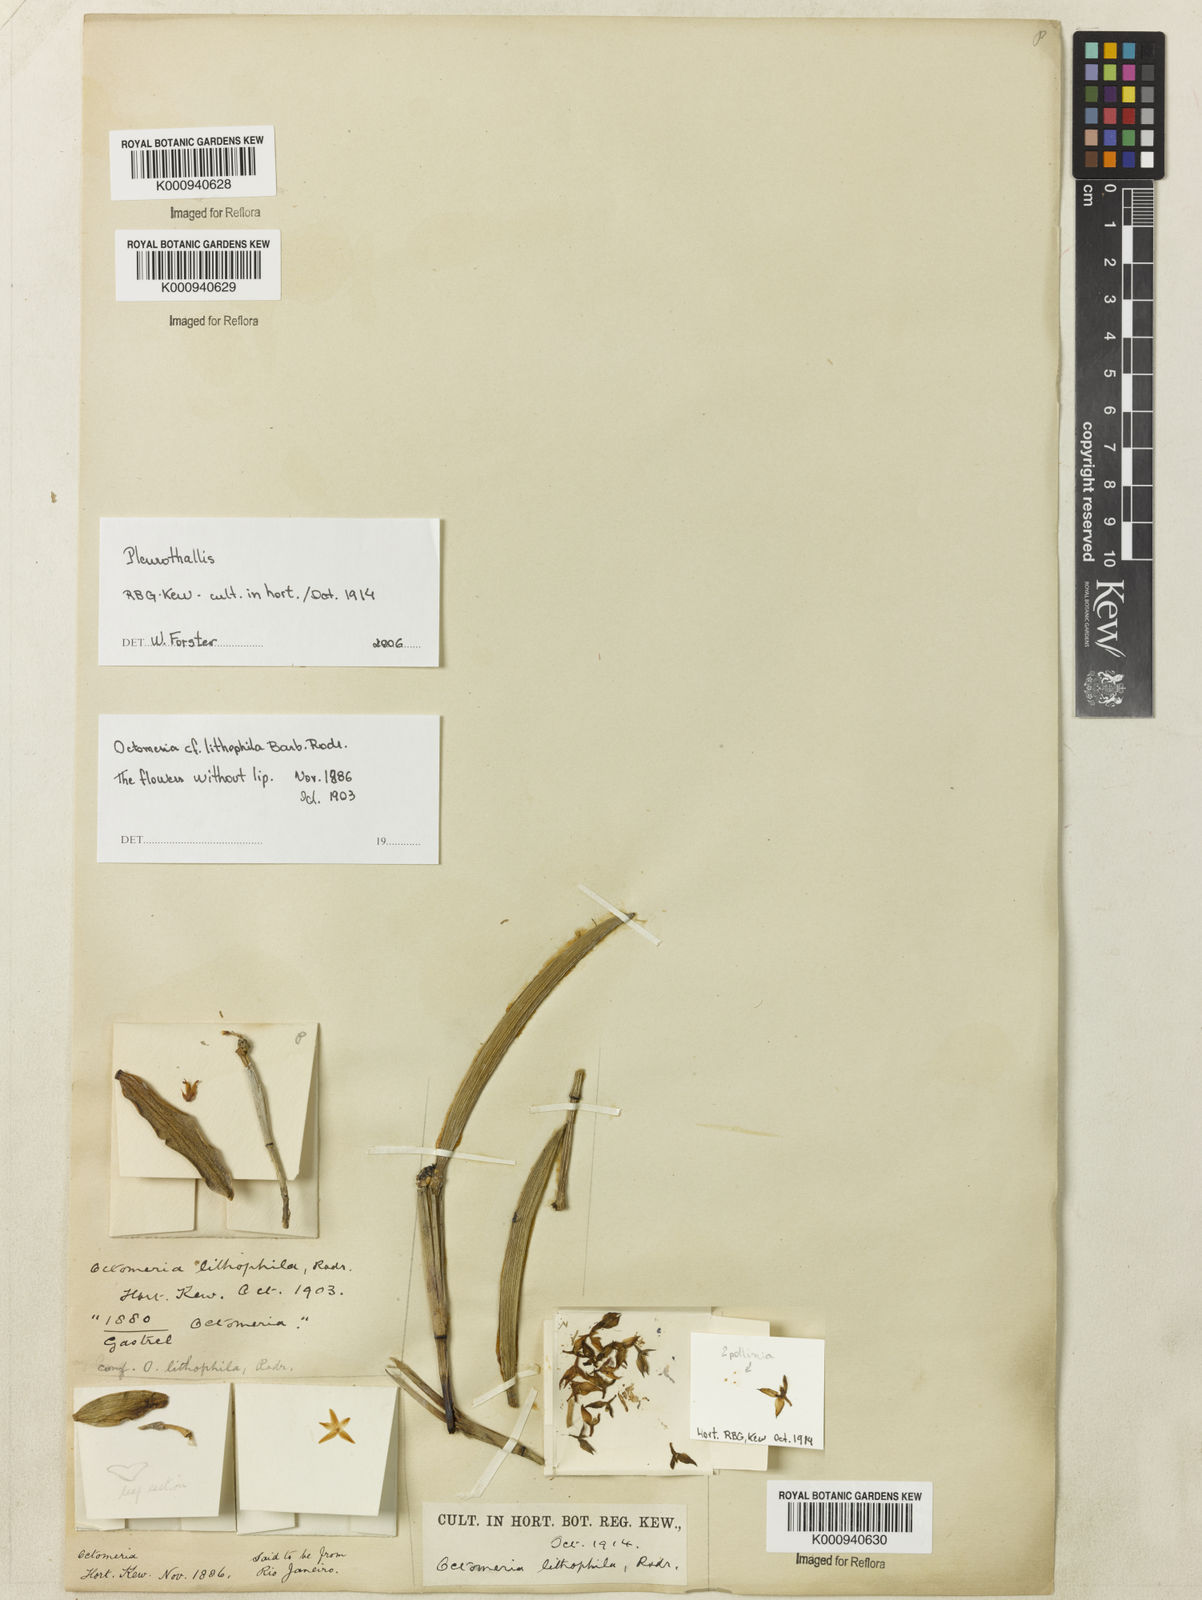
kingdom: Plantae
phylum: Tracheophyta
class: Liliopsida
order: Asparagales
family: Orchidaceae
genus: Octomeria
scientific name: Octomeria lithophila
